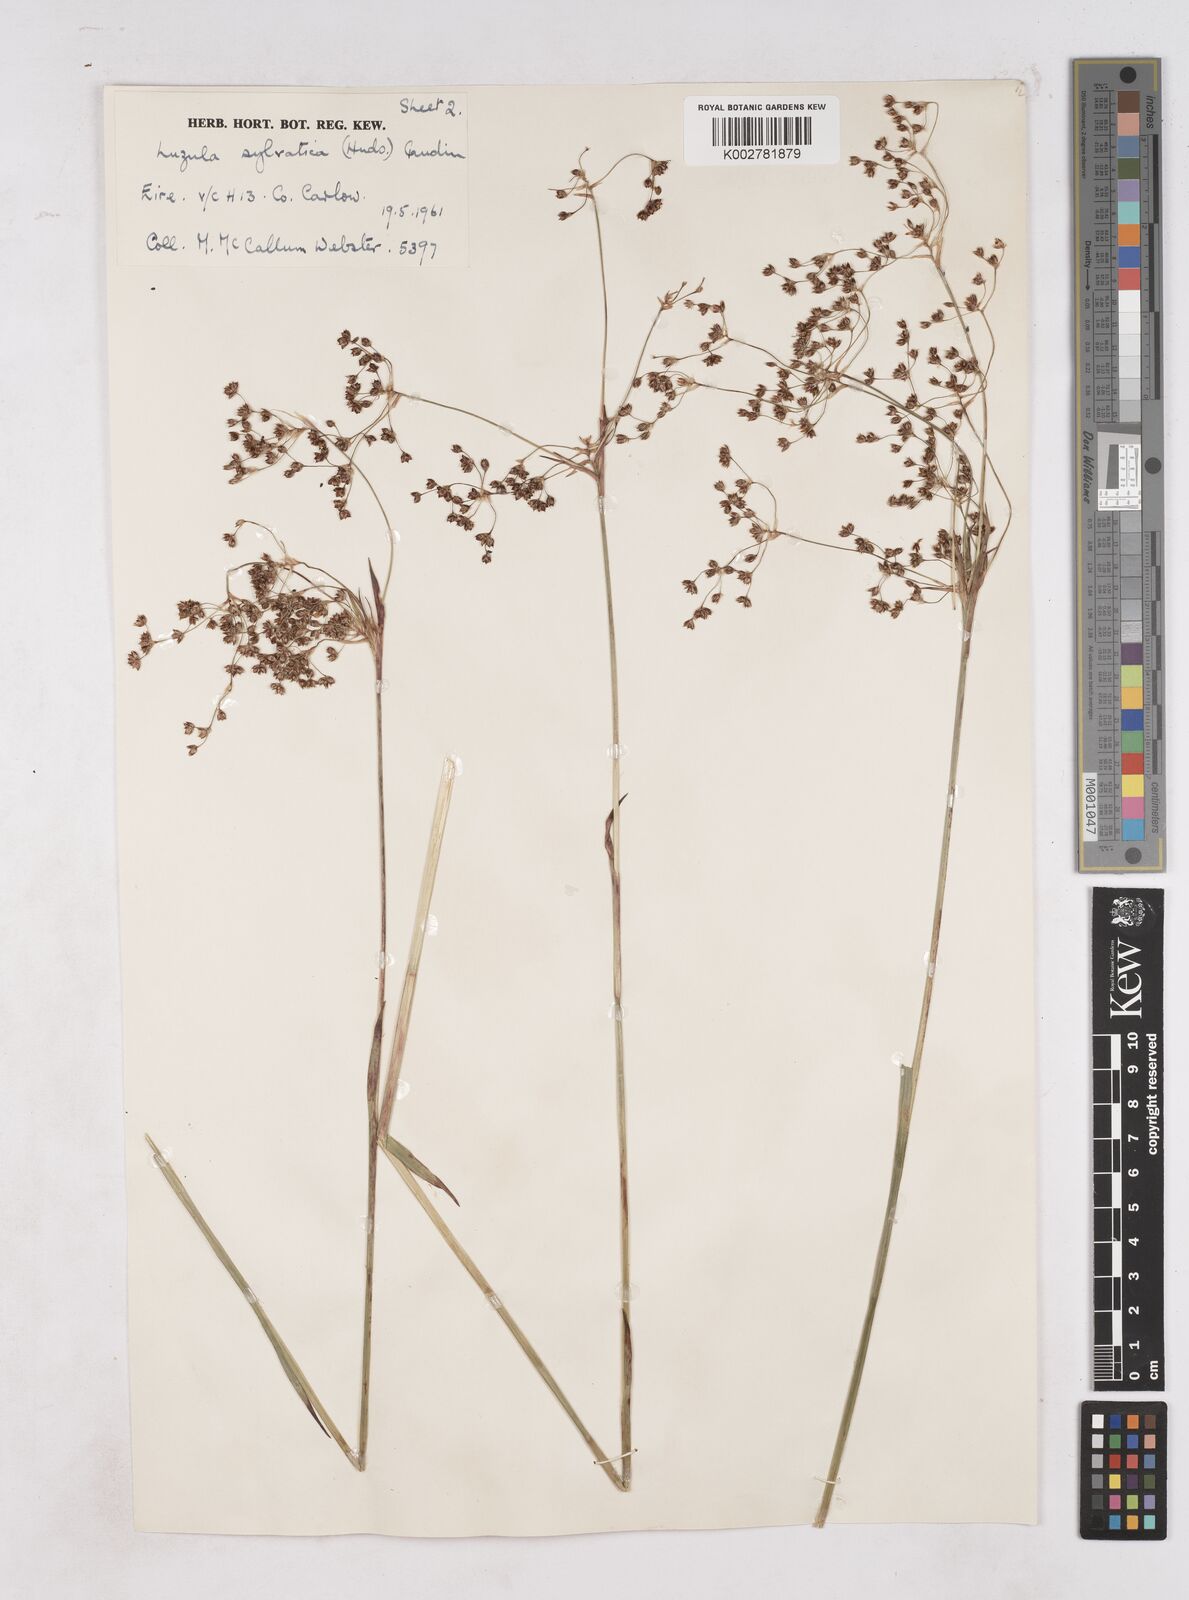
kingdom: Plantae
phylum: Tracheophyta
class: Liliopsida
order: Poales
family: Juncaceae
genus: Luzula
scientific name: Luzula sylvatica
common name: Great wood-rush
